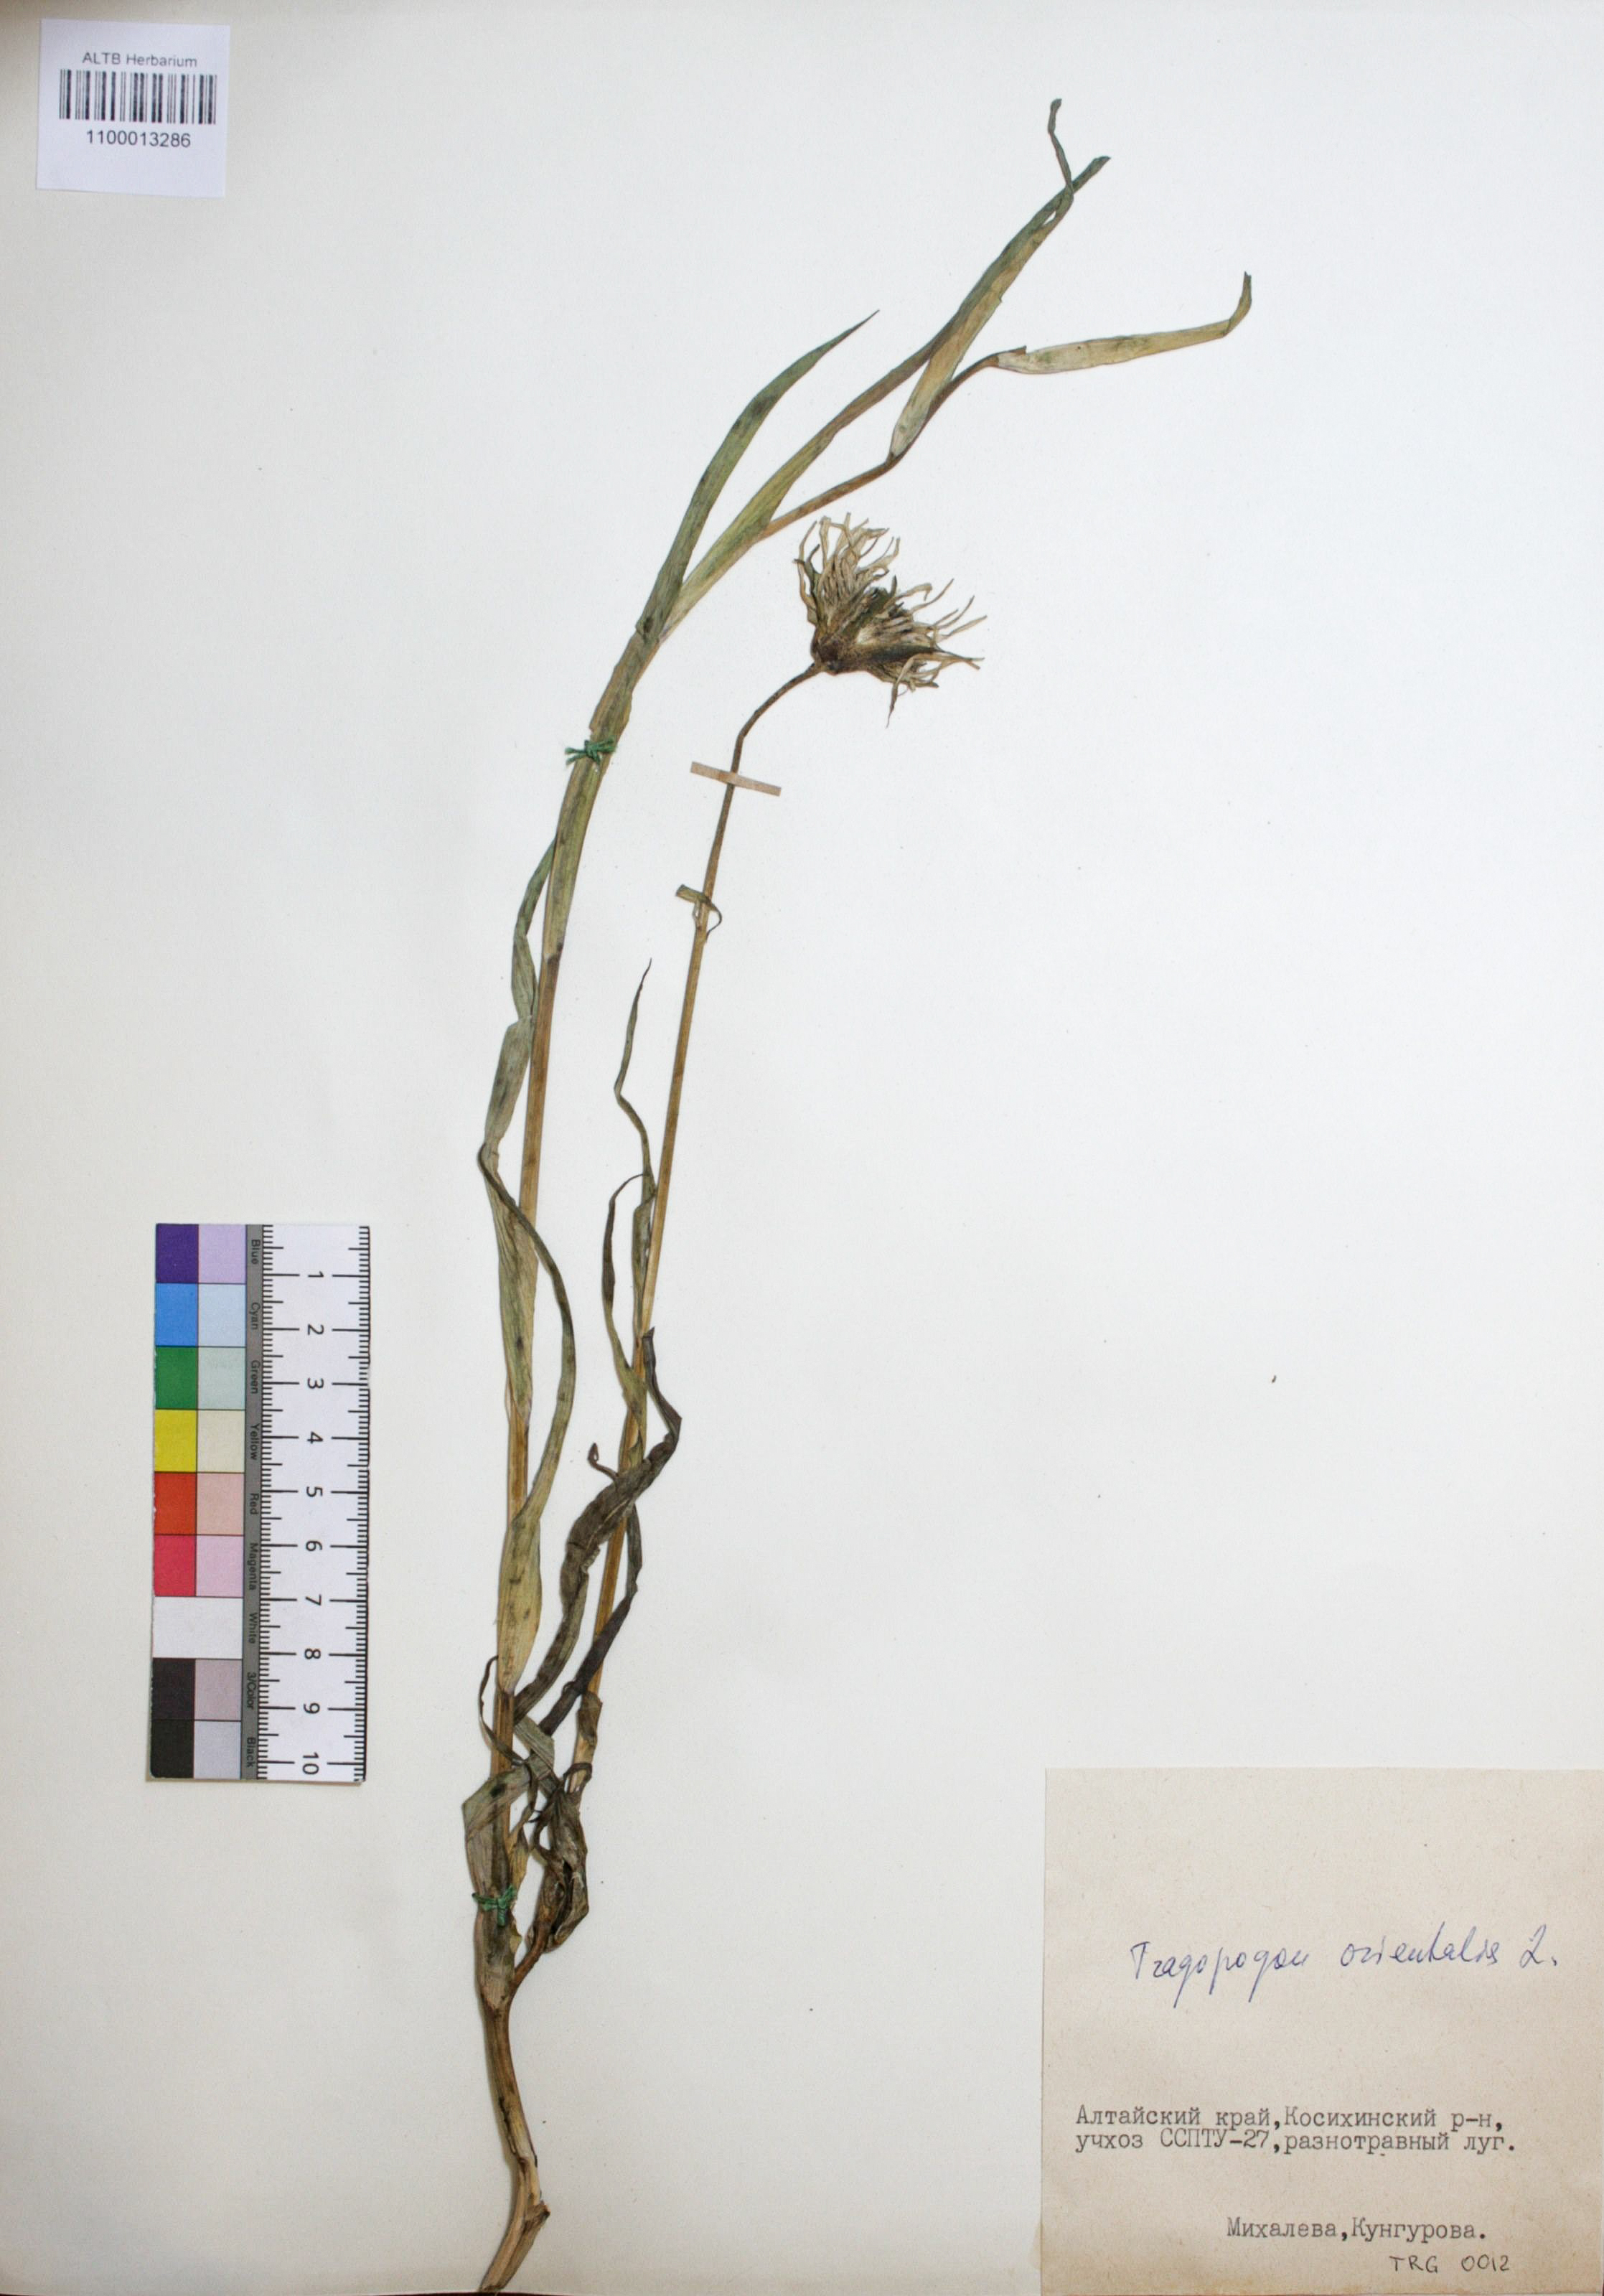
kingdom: Plantae
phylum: Tracheophyta
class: Magnoliopsida
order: Asterales
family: Asteraceae
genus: Tragopogon
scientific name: Tragopogon orientalis
